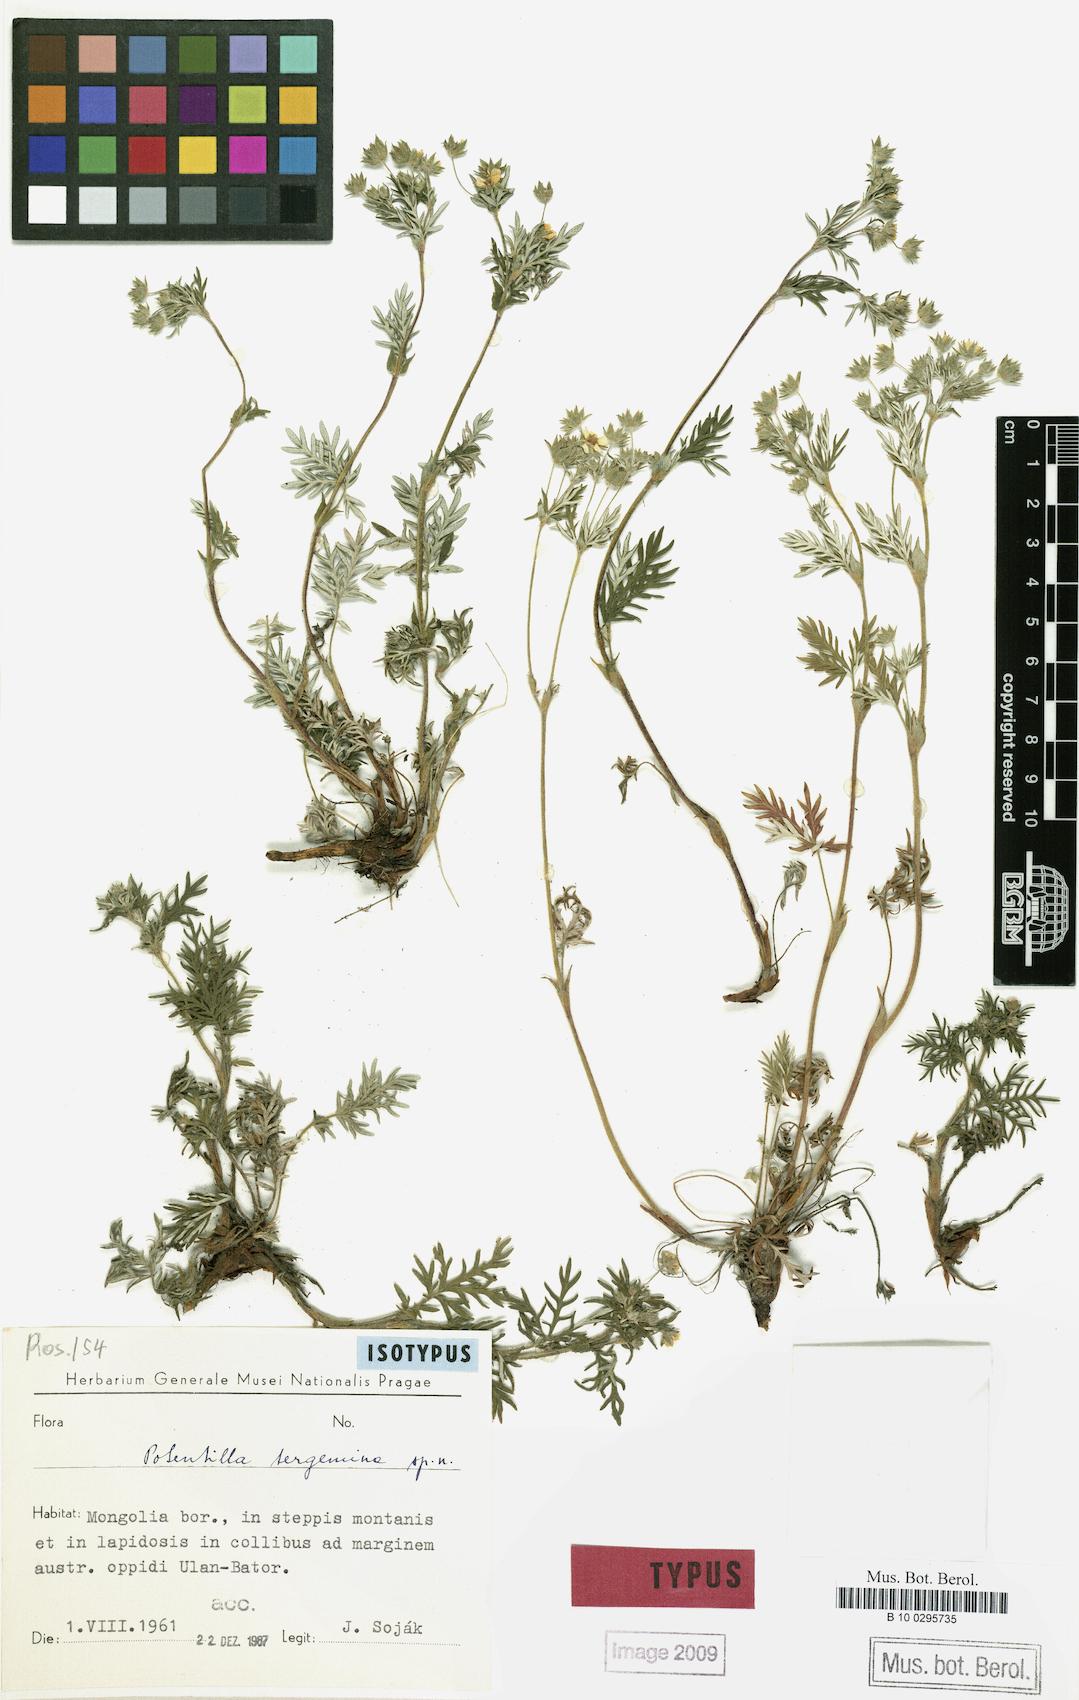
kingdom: Plantae
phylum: Tracheophyta
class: Magnoliopsida
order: Rosales
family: Rosaceae
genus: Potentilla
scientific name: Potentilla tergemina
